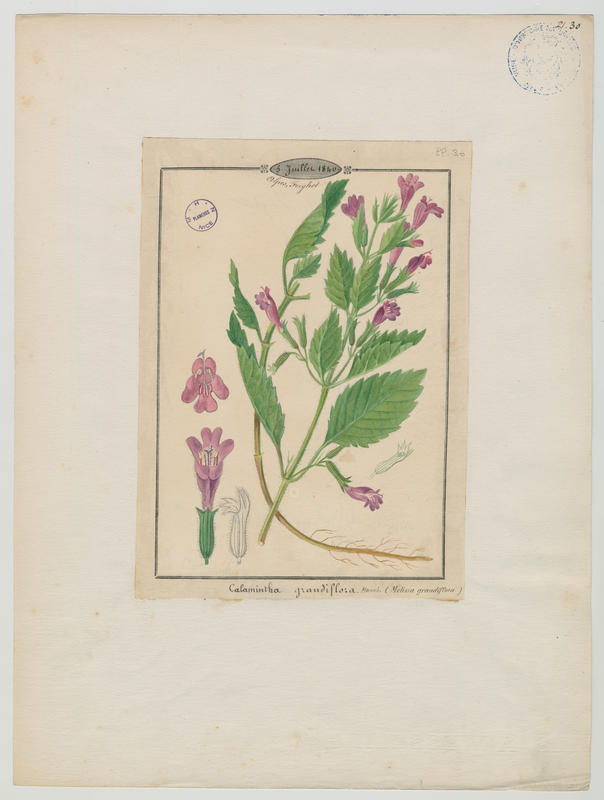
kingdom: Plantae
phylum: Tracheophyta
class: Magnoliopsida
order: Lamiales
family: Lamiaceae
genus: Clinopodium
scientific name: Clinopodium grandiflorum
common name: Greater calamint
